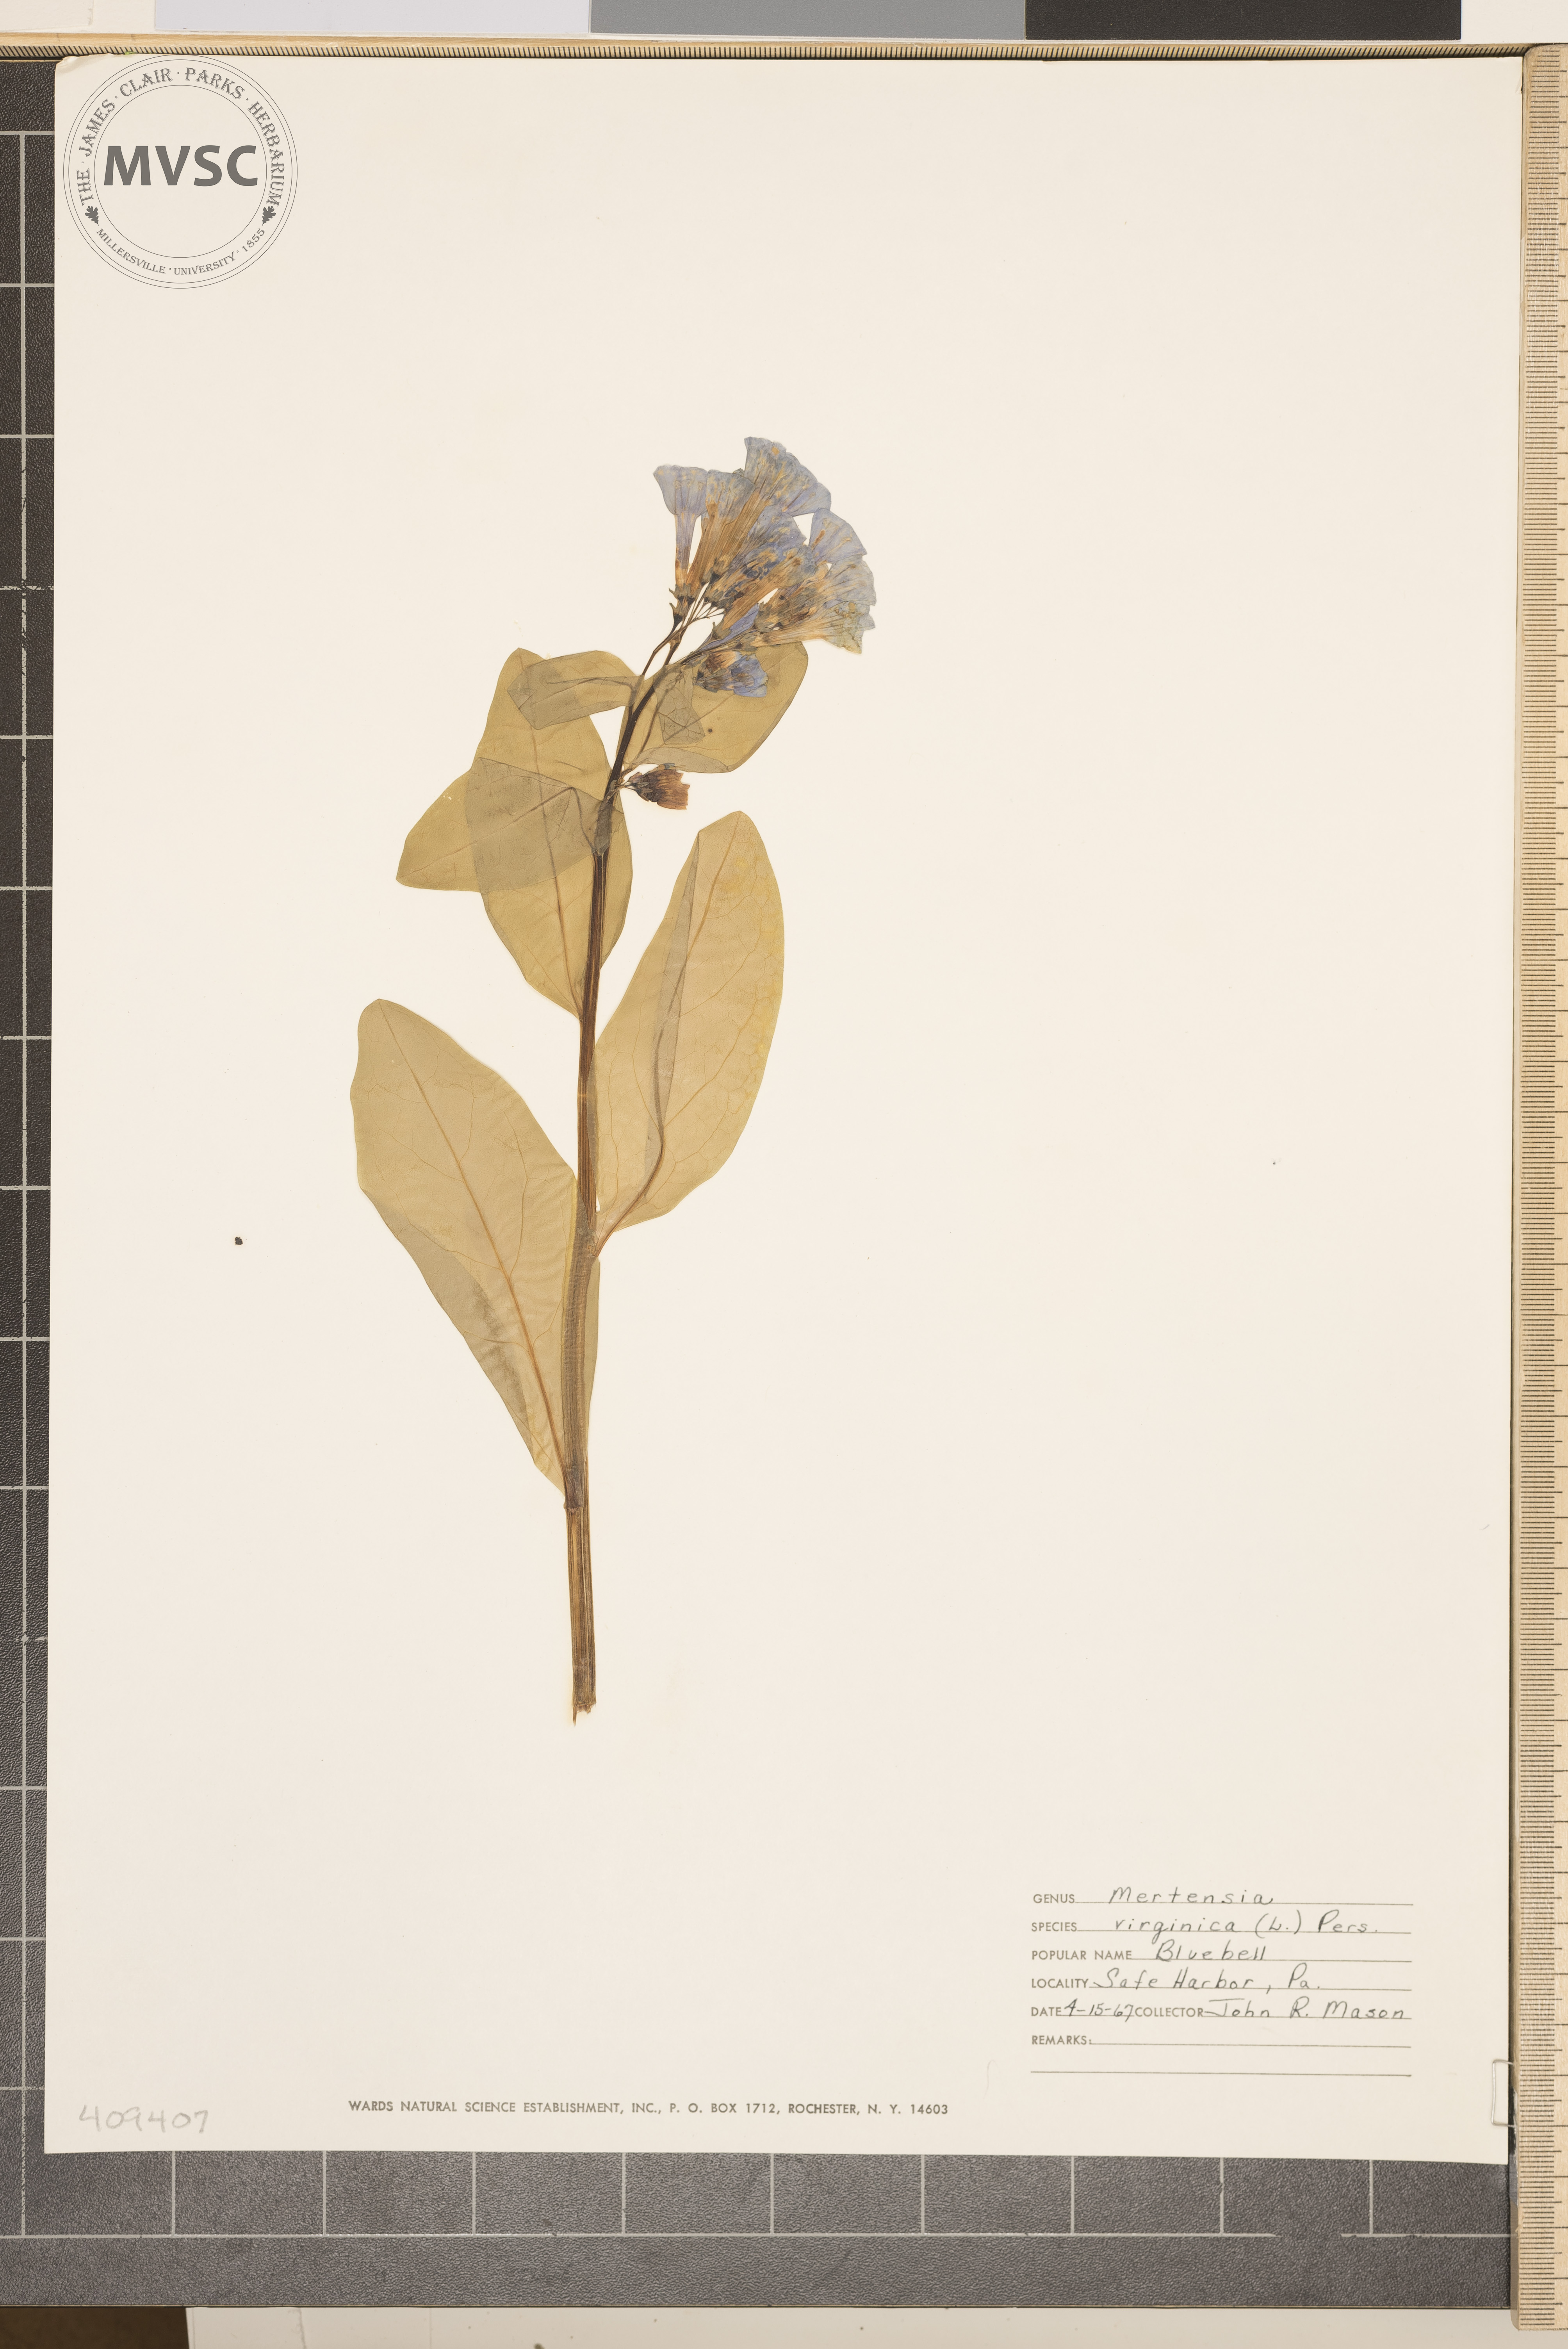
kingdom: Plantae
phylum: Tracheophyta
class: Magnoliopsida
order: Boraginales
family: Boraginaceae
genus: Mertensia
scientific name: Mertensia virginica
